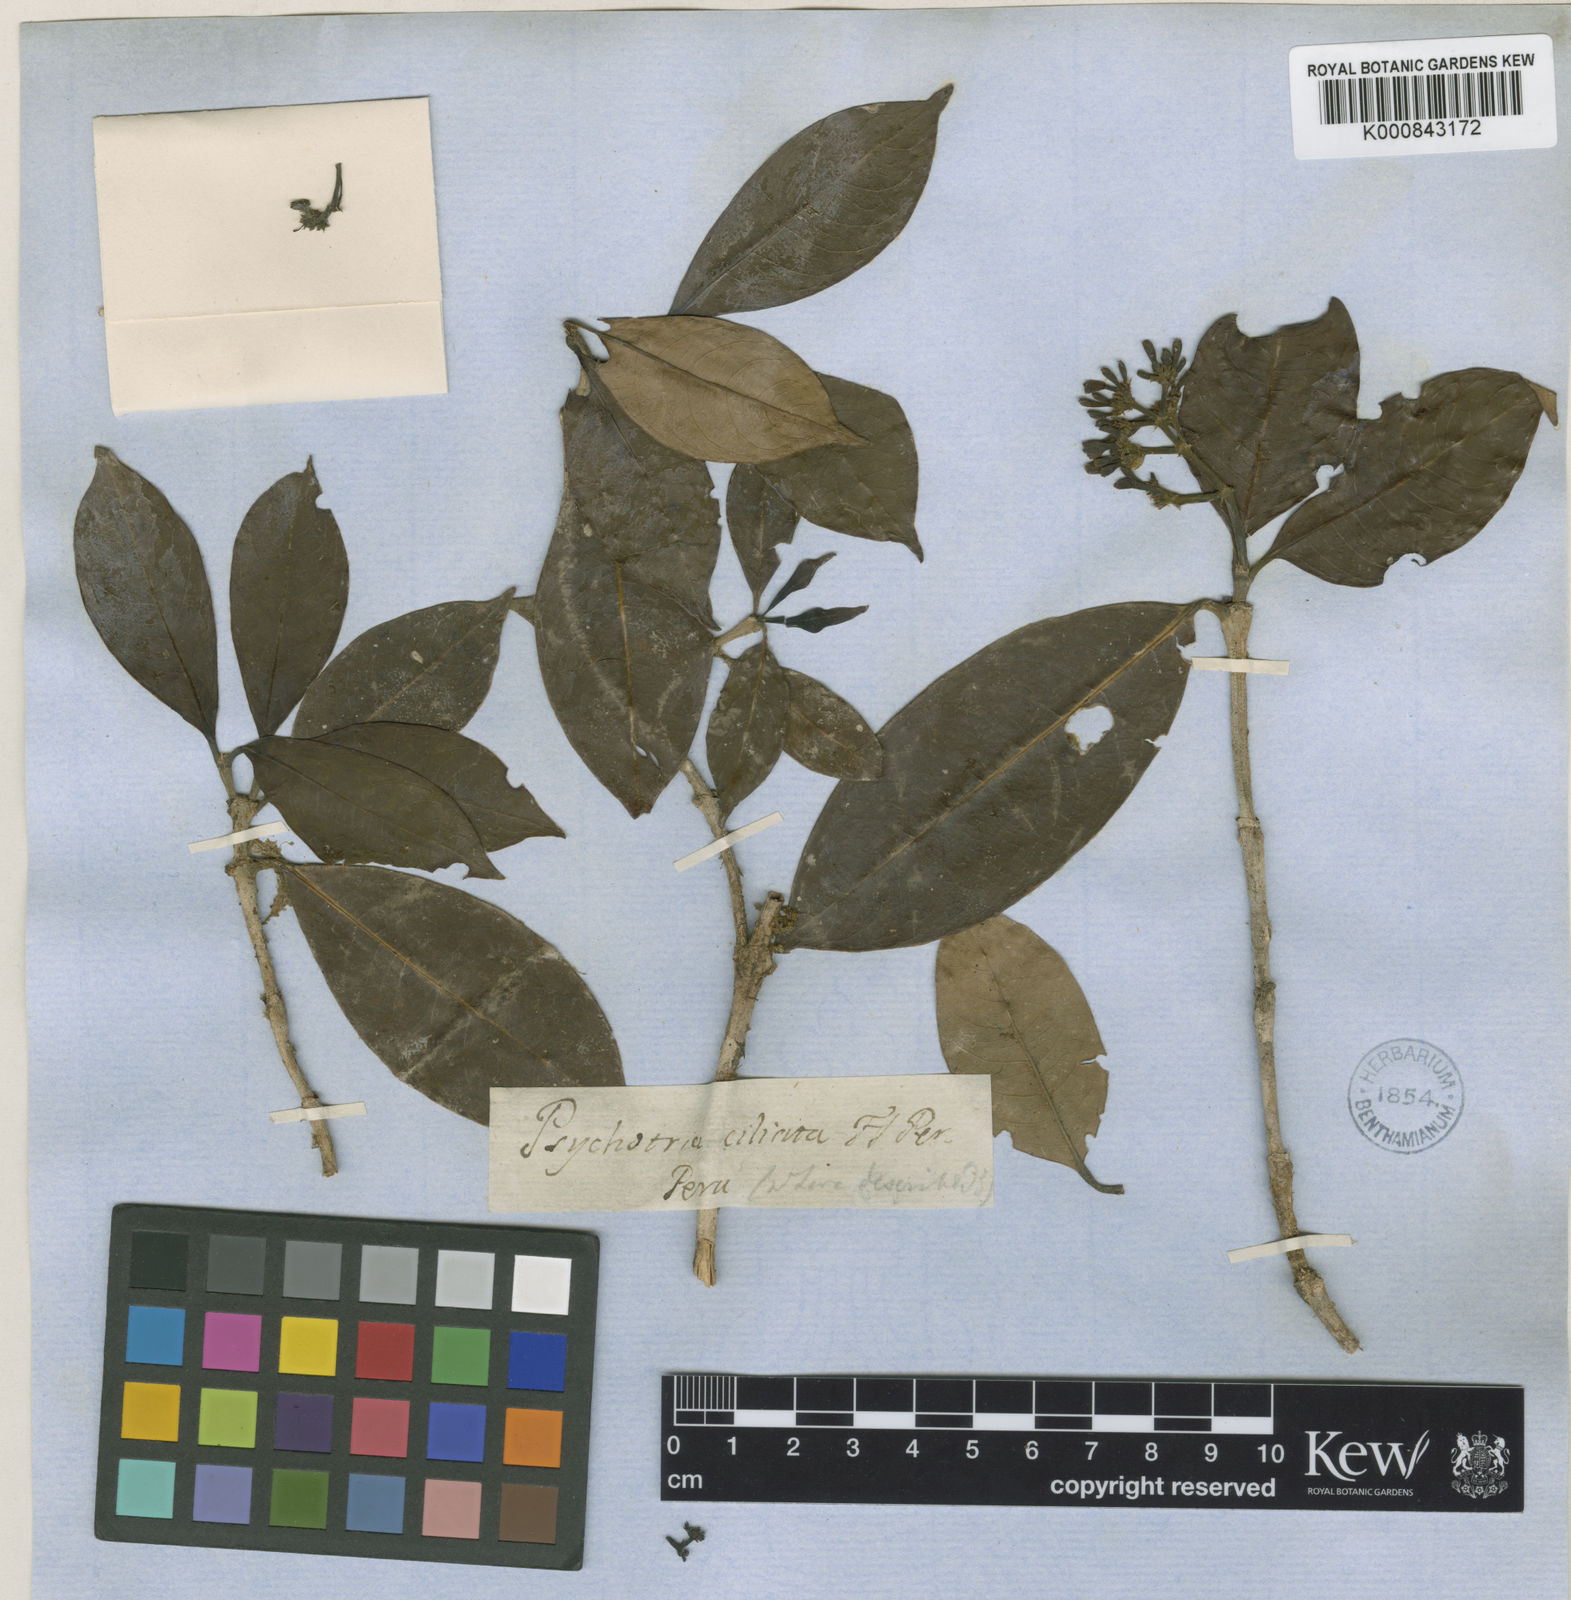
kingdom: Plantae
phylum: Tracheophyta
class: Magnoliopsida
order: Gentianales
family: Rubiaceae
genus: Psychotria
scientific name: Psychotria ebensis
